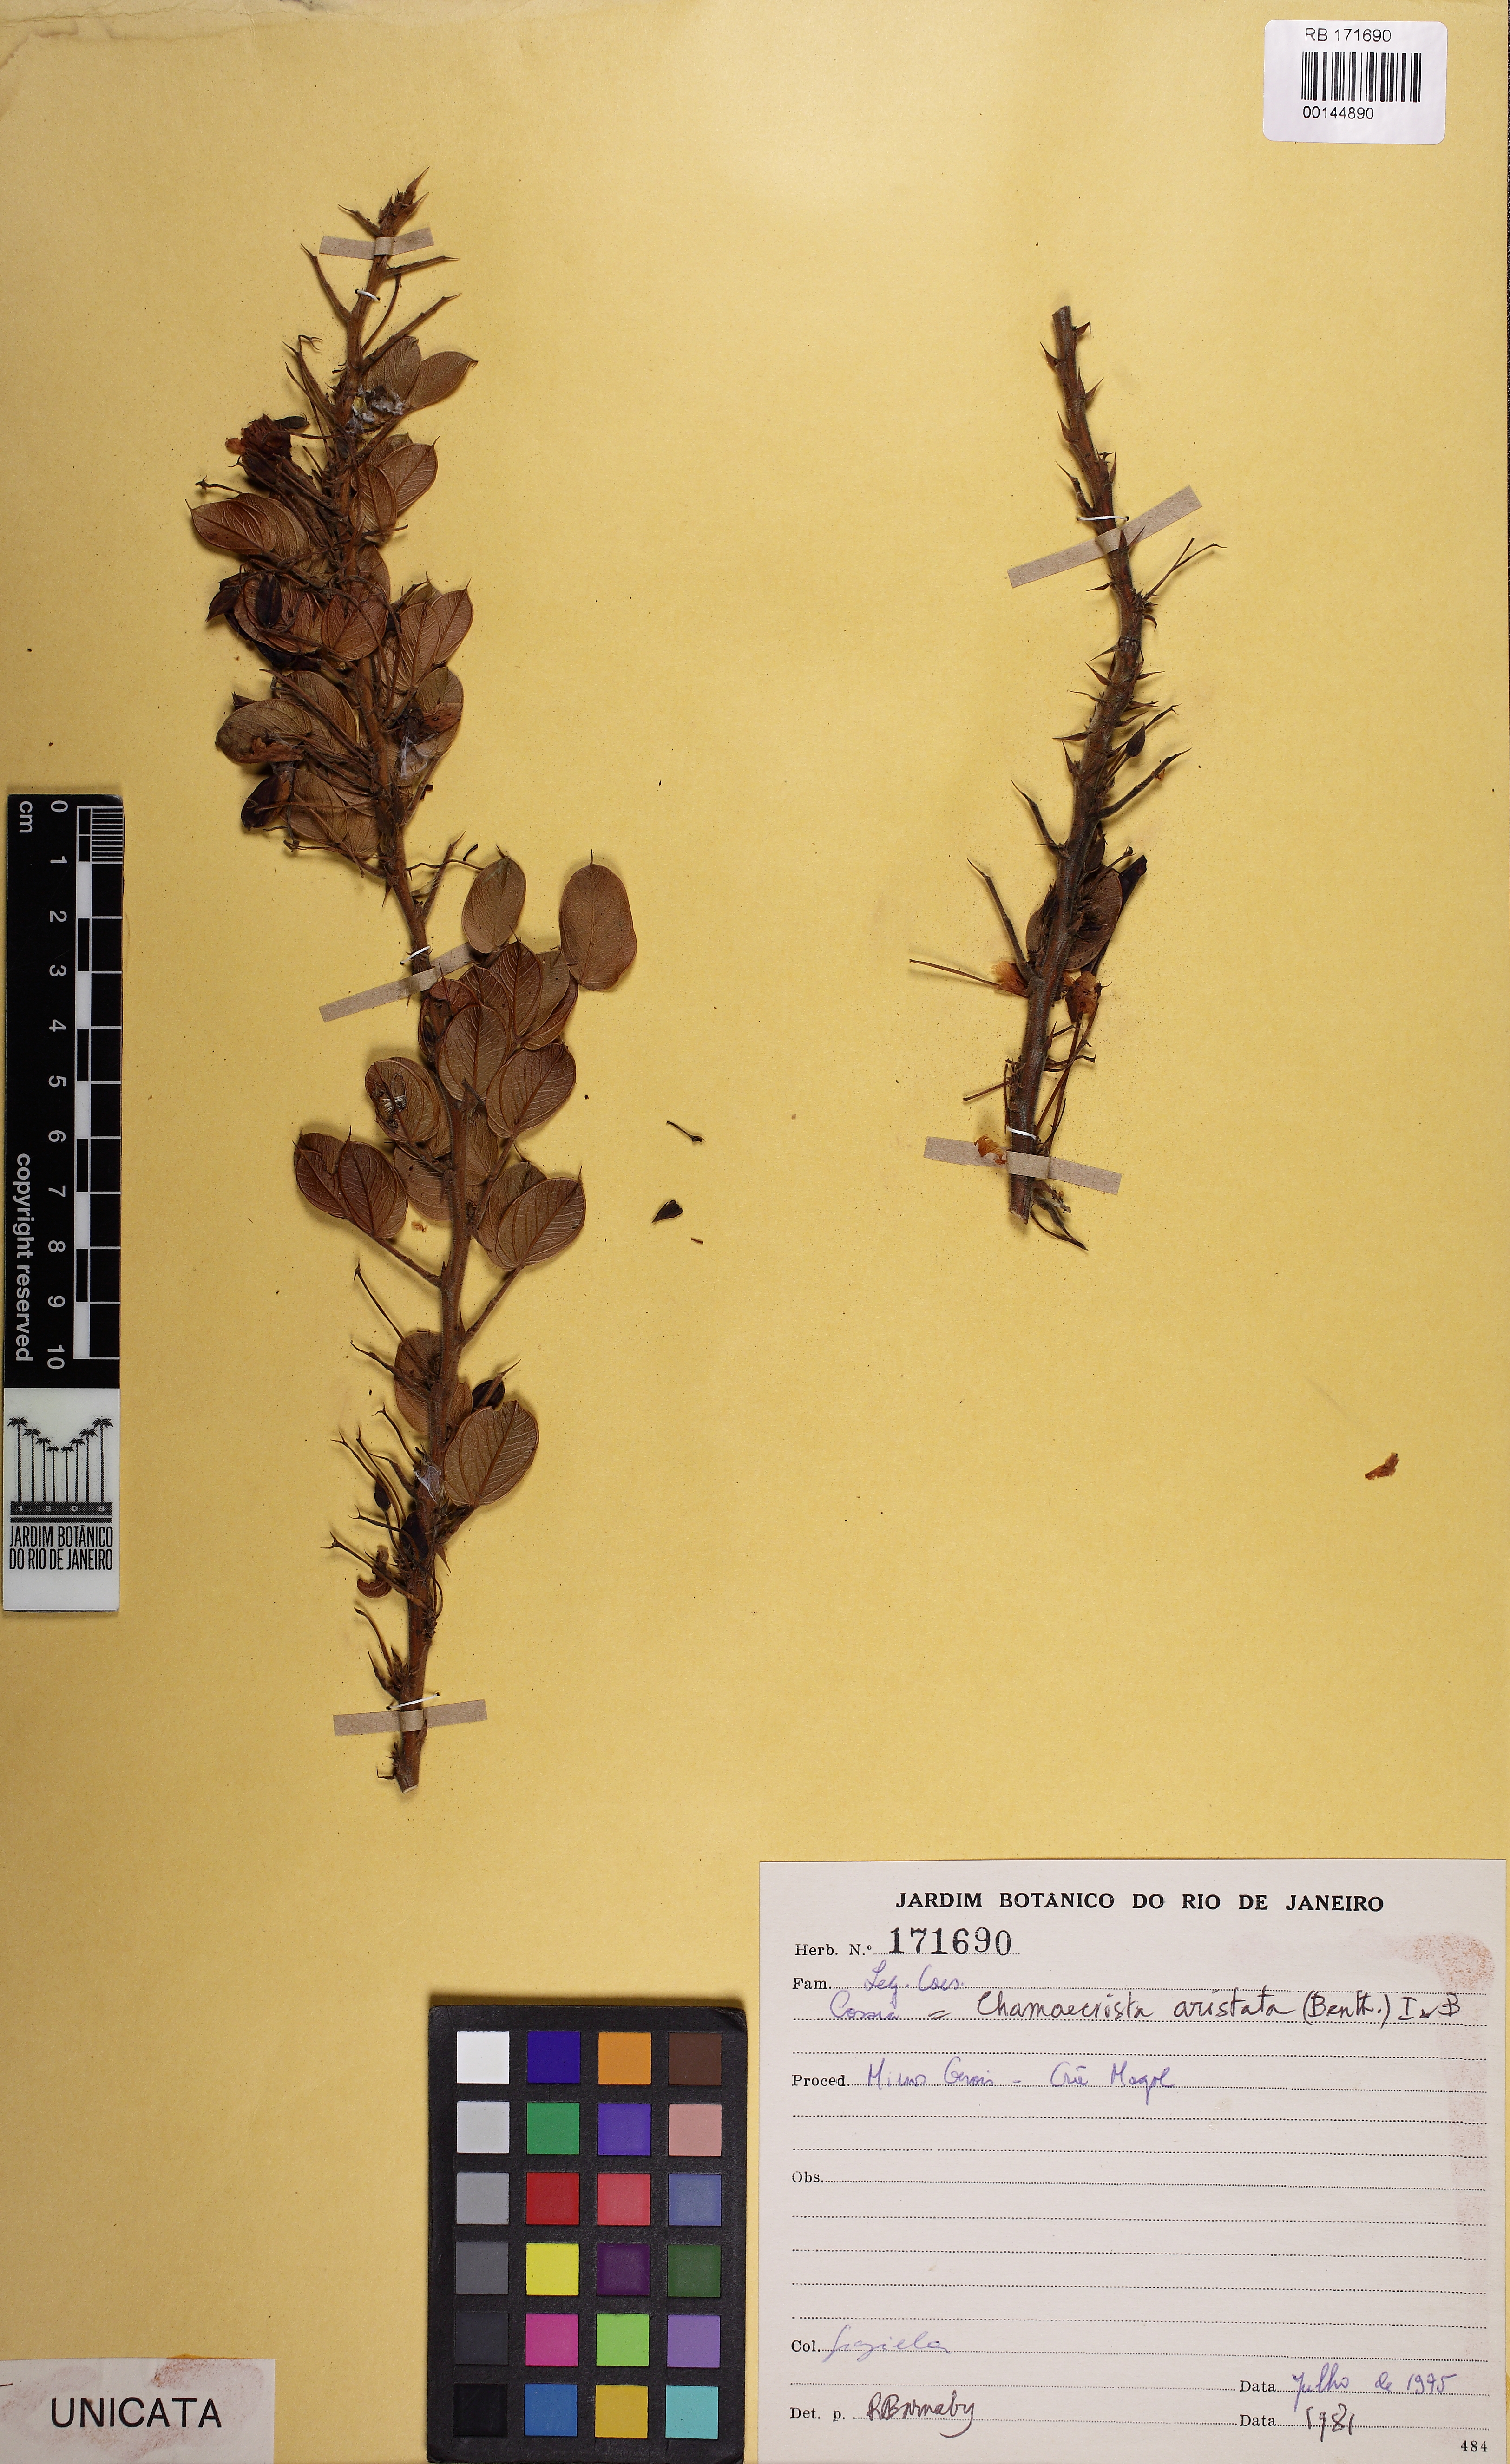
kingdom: Plantae
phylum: Tracheophyta
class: Magnoliopsida
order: Fabales
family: Fabaceae
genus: Chamaecrista
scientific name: Chamaecrista aristata
